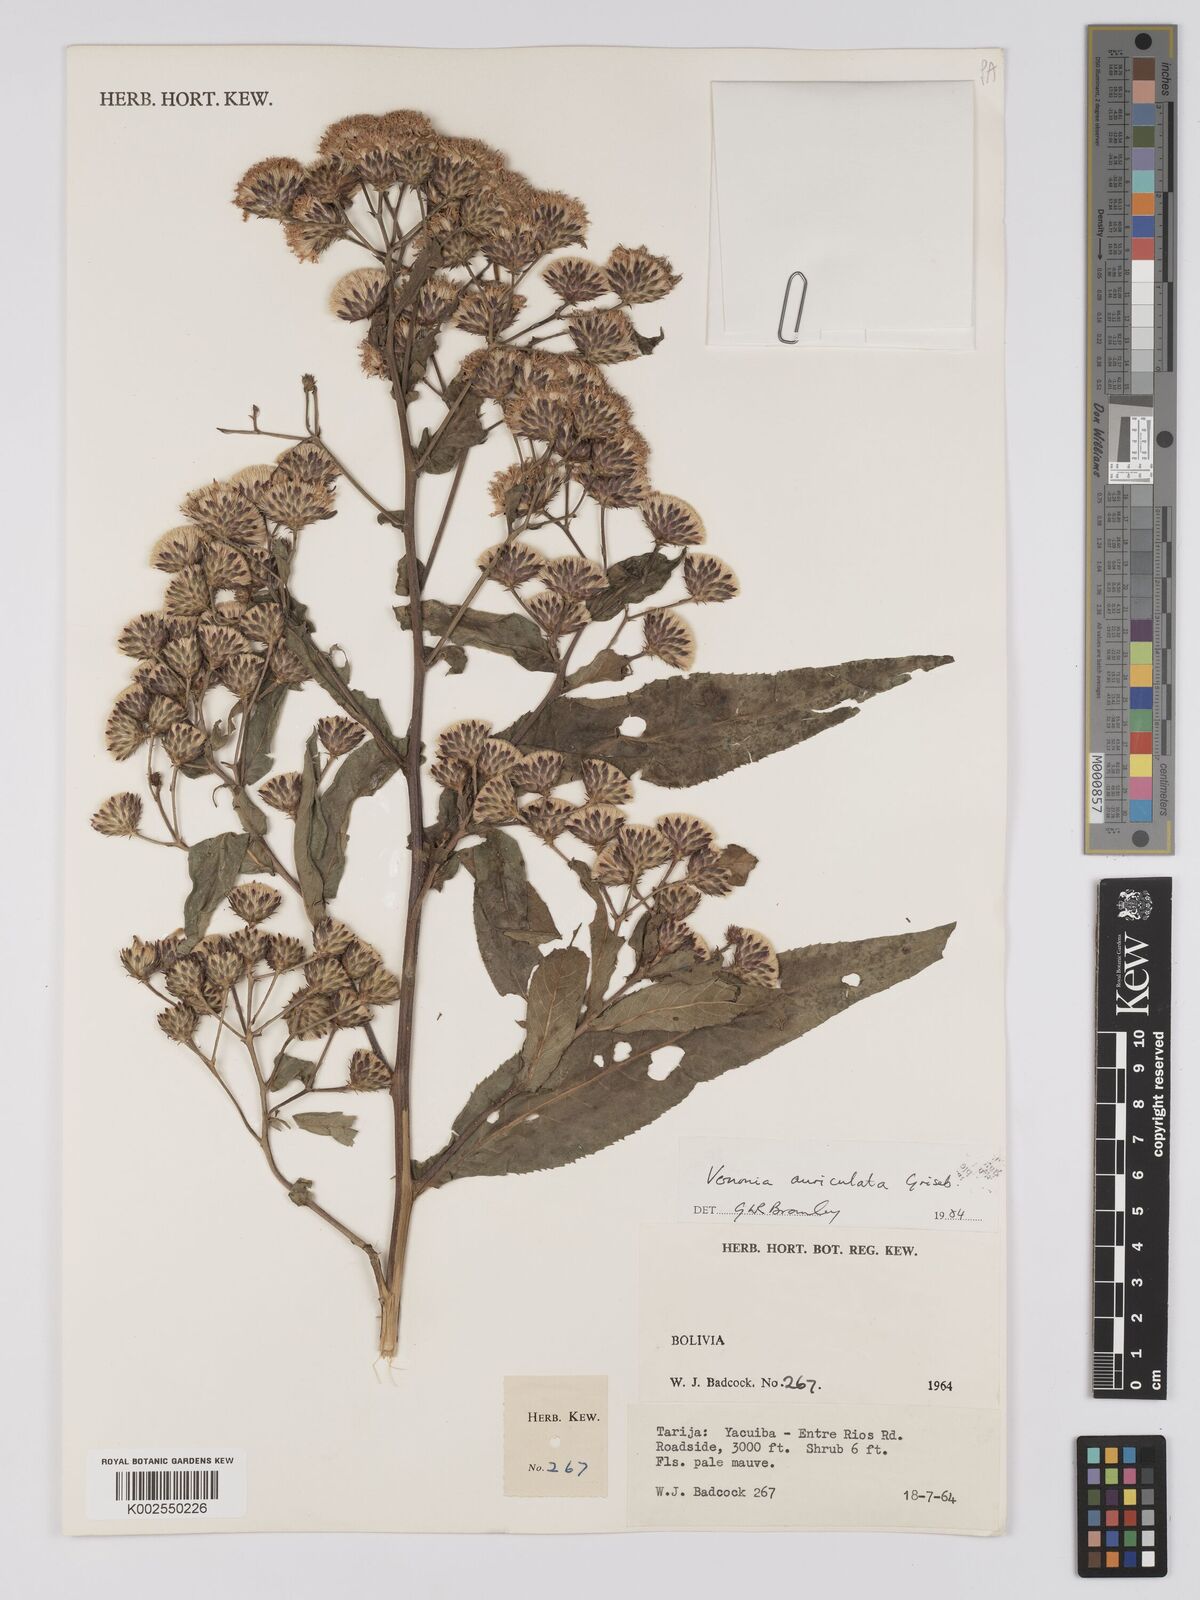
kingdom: Plantae
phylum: Tracheophyta
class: Magnoliopsida
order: Asterales
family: Asteraceae
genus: Vernonanthura
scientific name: Vernonanthura auriculata
